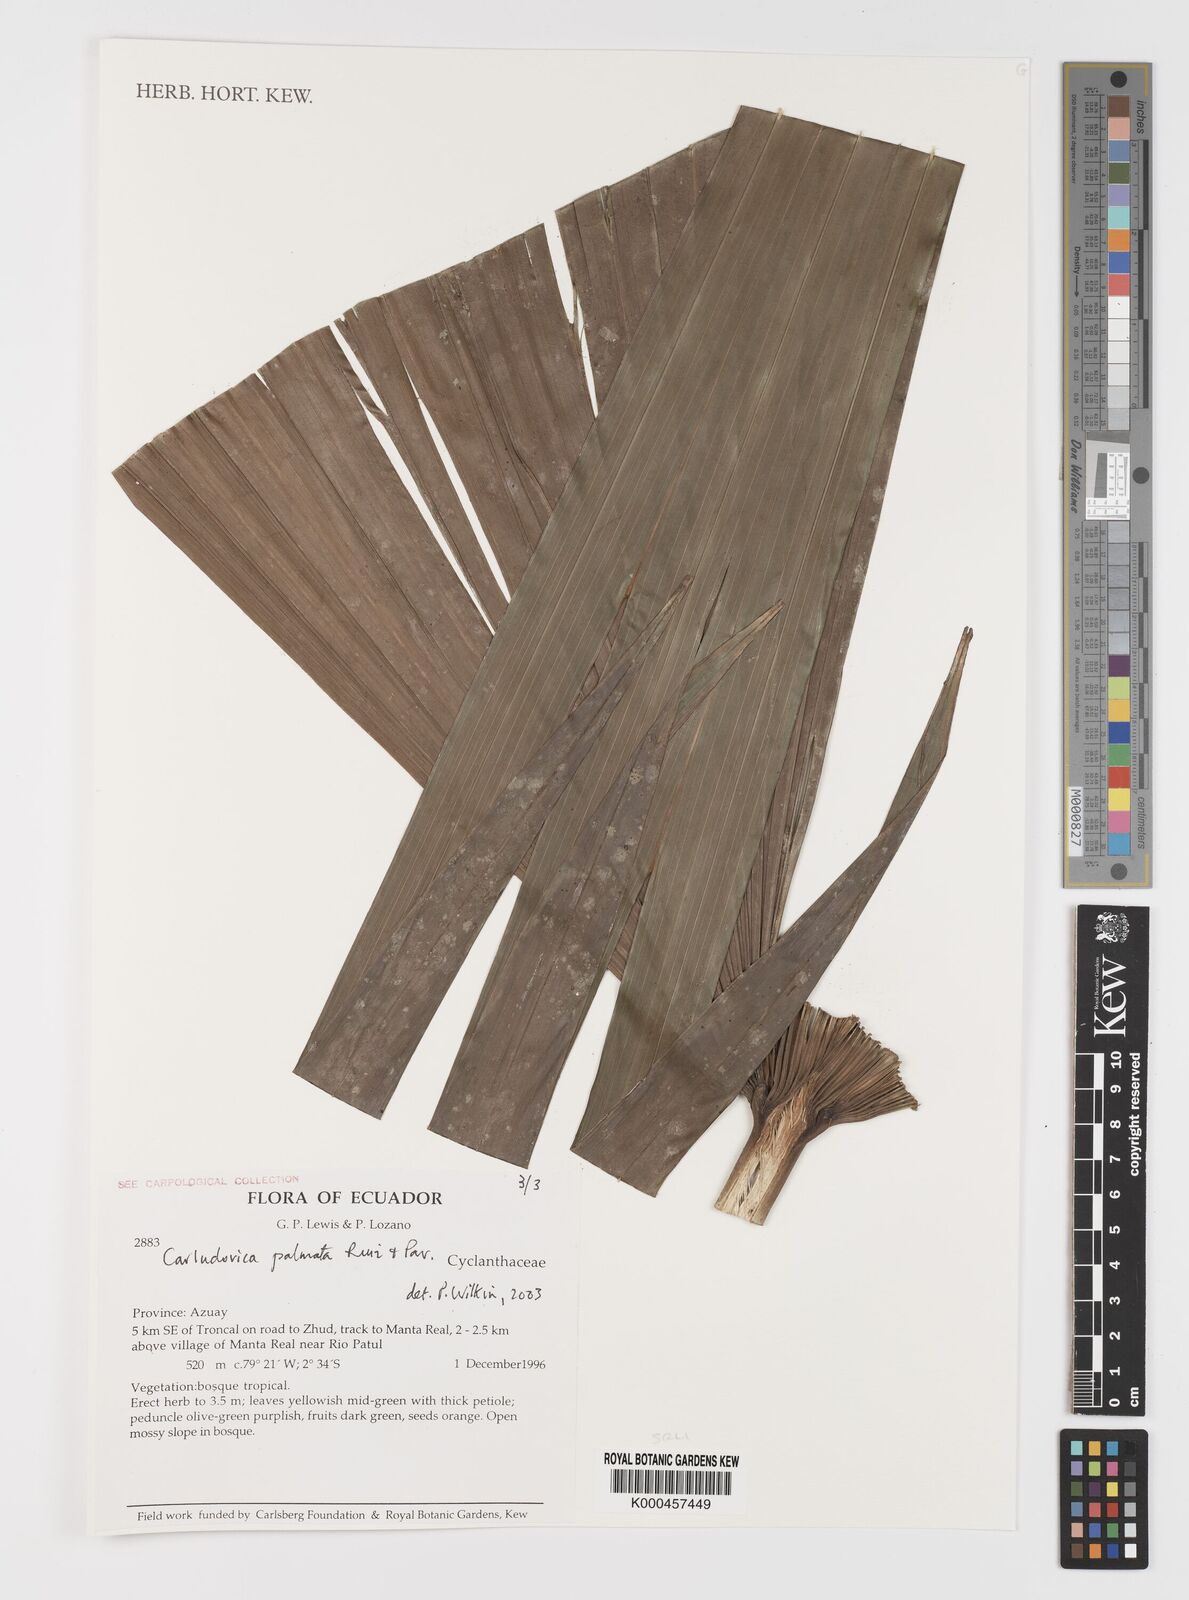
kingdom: Plantae
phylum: Tracheophyta
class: Liliopsida
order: Pandanales
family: Cyclanthaceae
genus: Carludovica
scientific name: Carludovica palmata
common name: Panama hat plant
